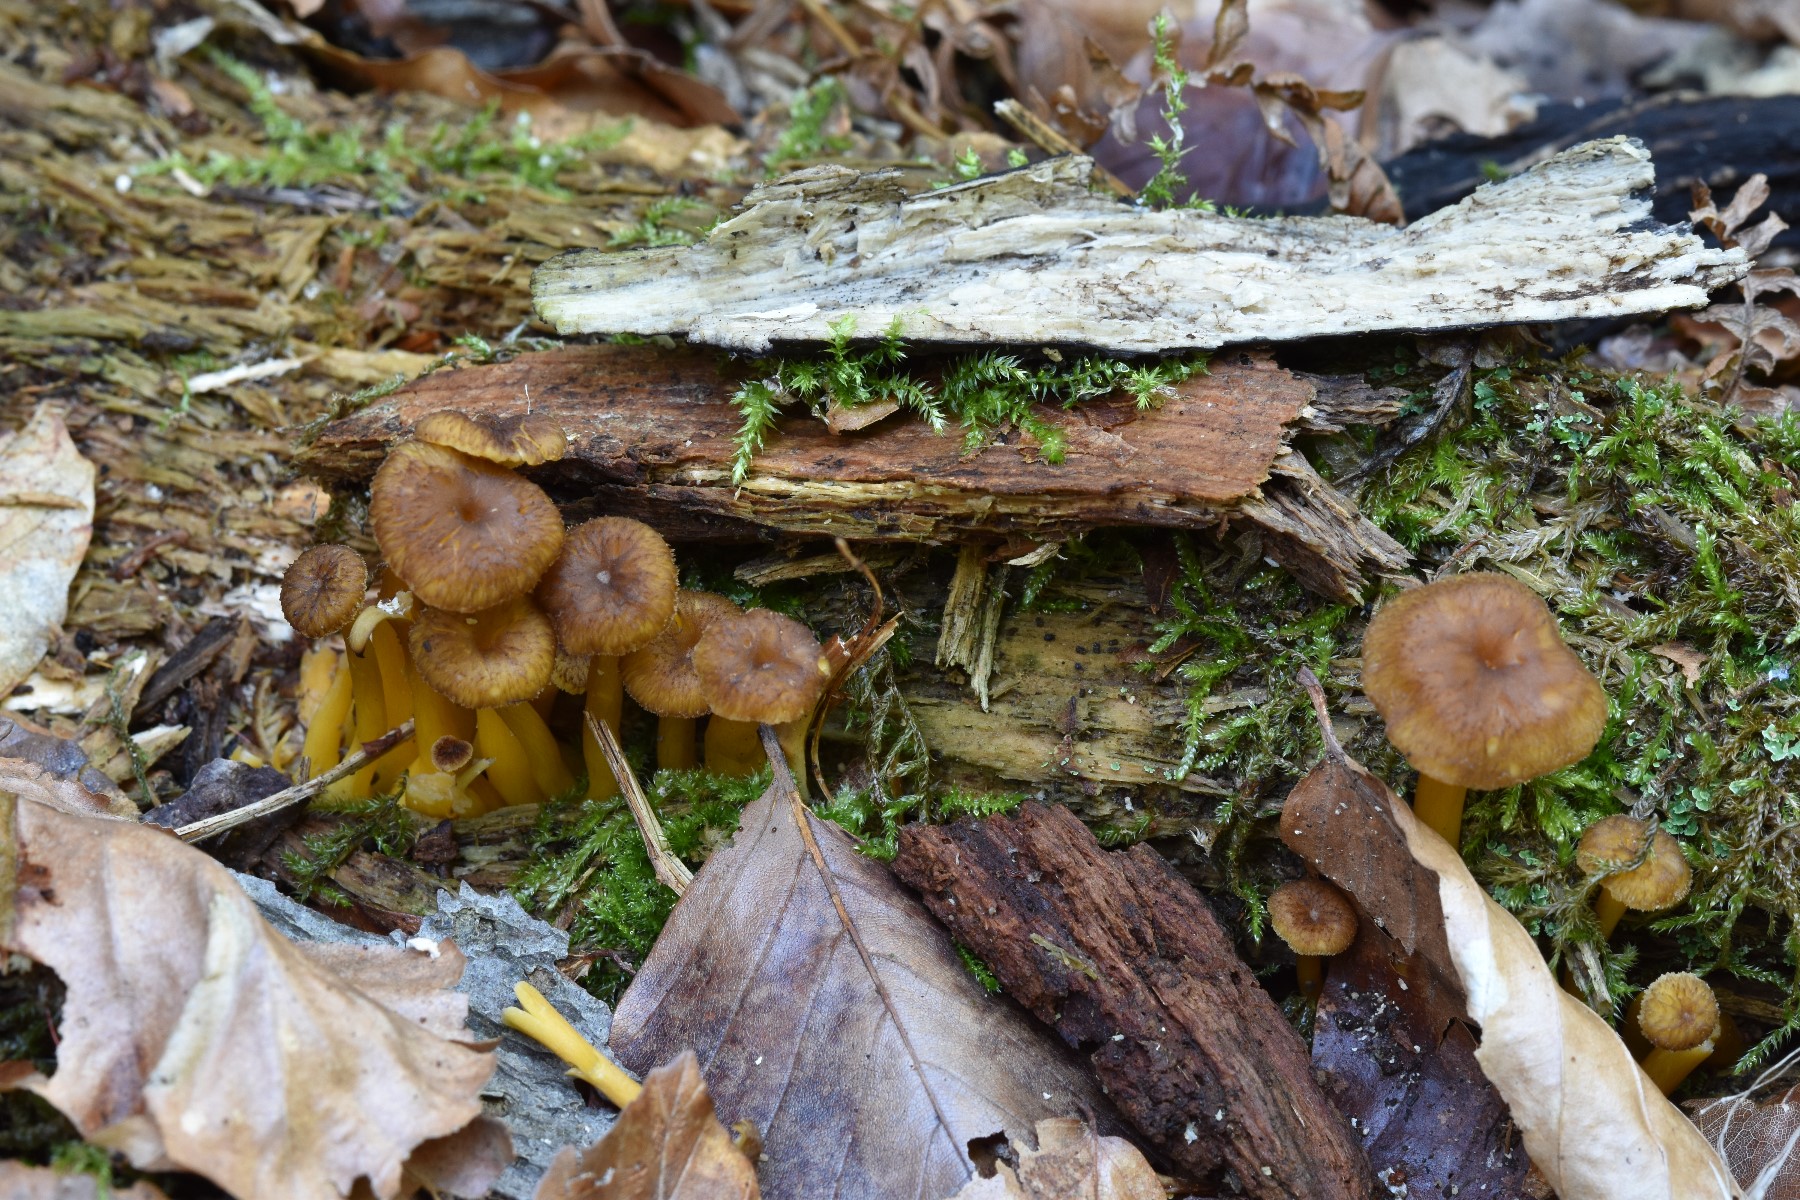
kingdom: Fungi
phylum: Basidiomycota
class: Agaricomycetes
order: Cantharellales
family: Hydnaceae
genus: Craterellus
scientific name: Craterellus tubaeformis
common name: tragt-kantarel
